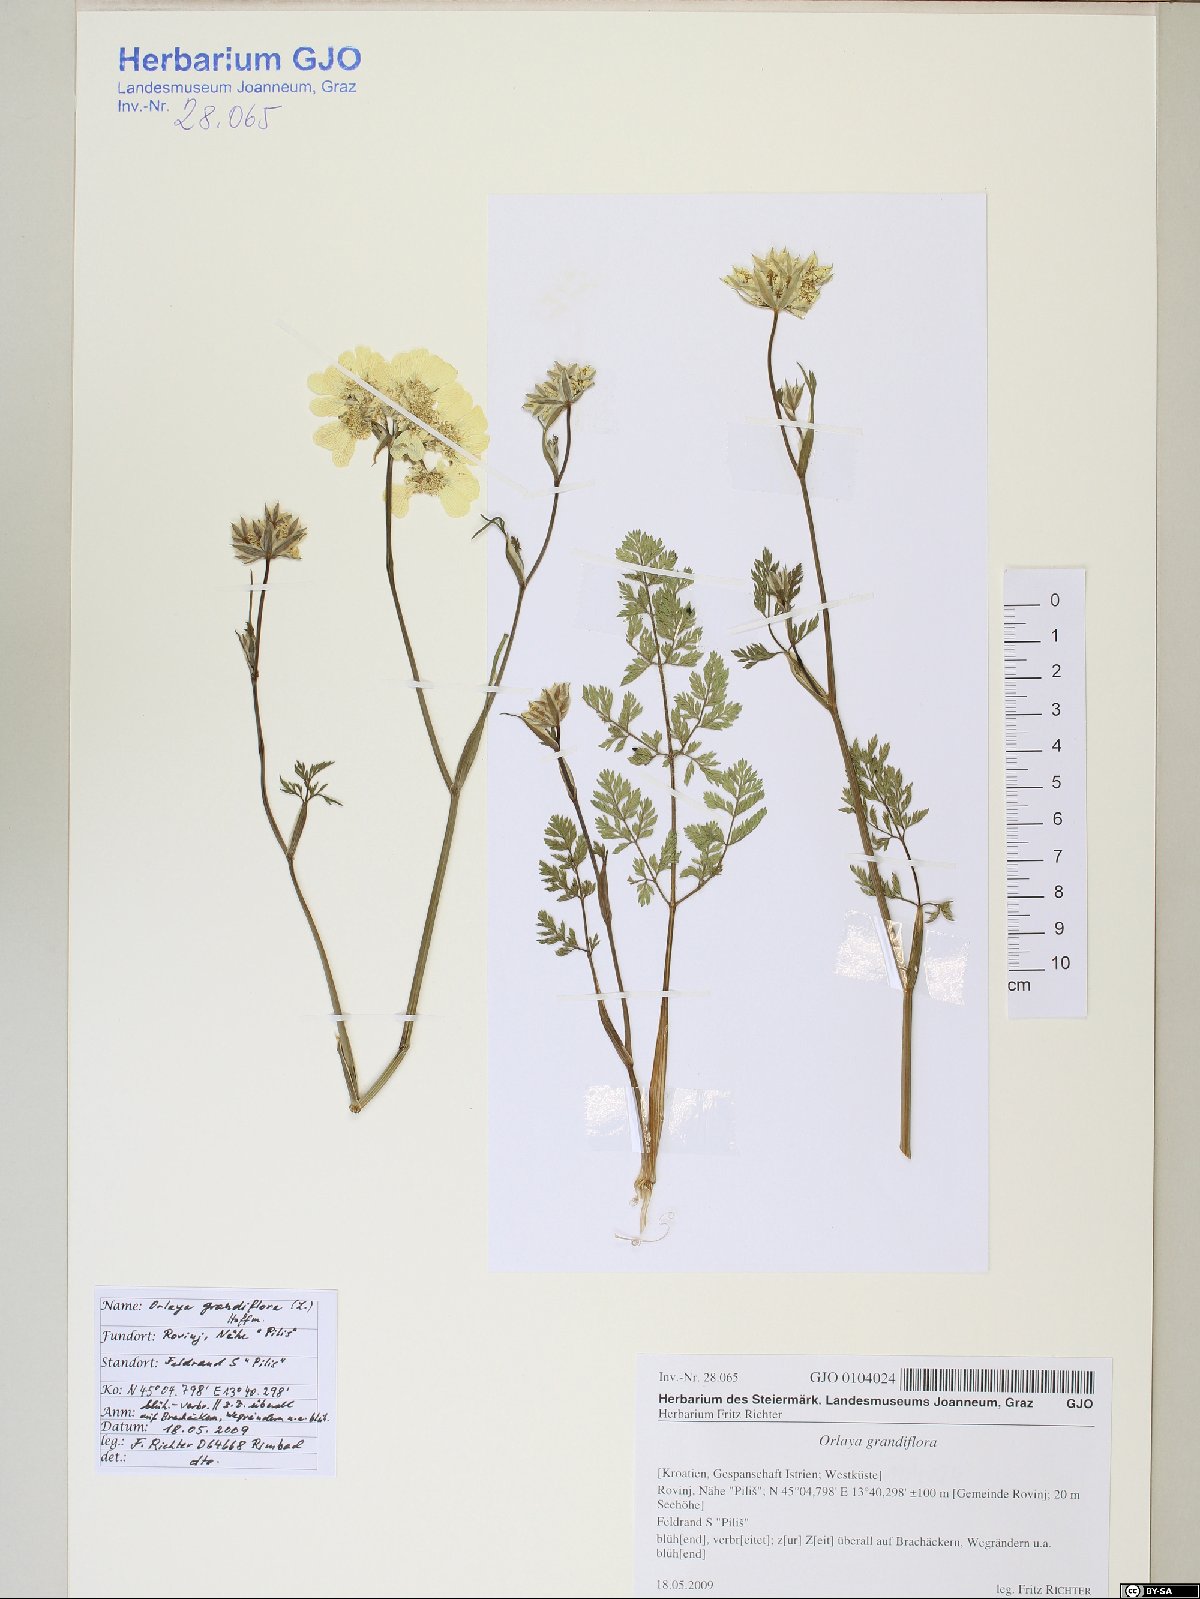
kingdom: Plantae
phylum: Tracheophyta
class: Magnoliopsida
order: Apiales
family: Apiaceae
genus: Orlaya
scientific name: Orlaya grandiflora
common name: White lace flower
